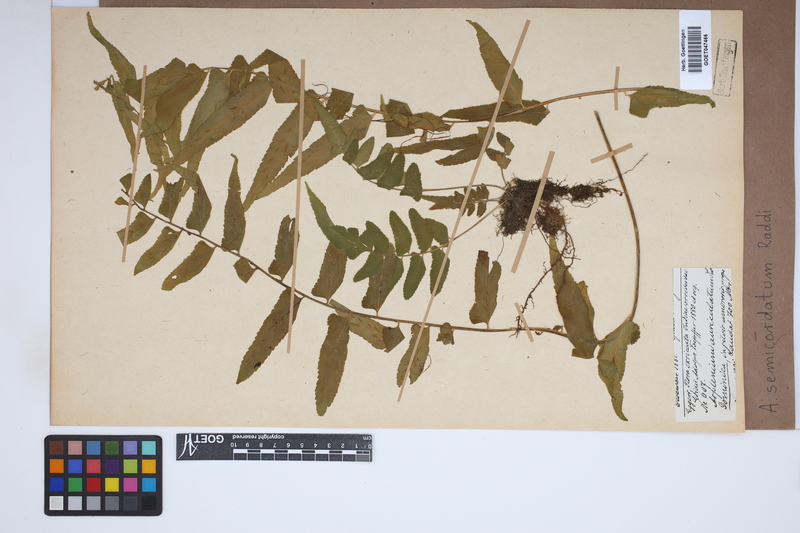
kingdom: Plantae
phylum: Tracheophyta
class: Polypodiopsida
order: Polypodiales
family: Aspleniaceae
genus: Asplenium
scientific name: Asplenium auriculatum
